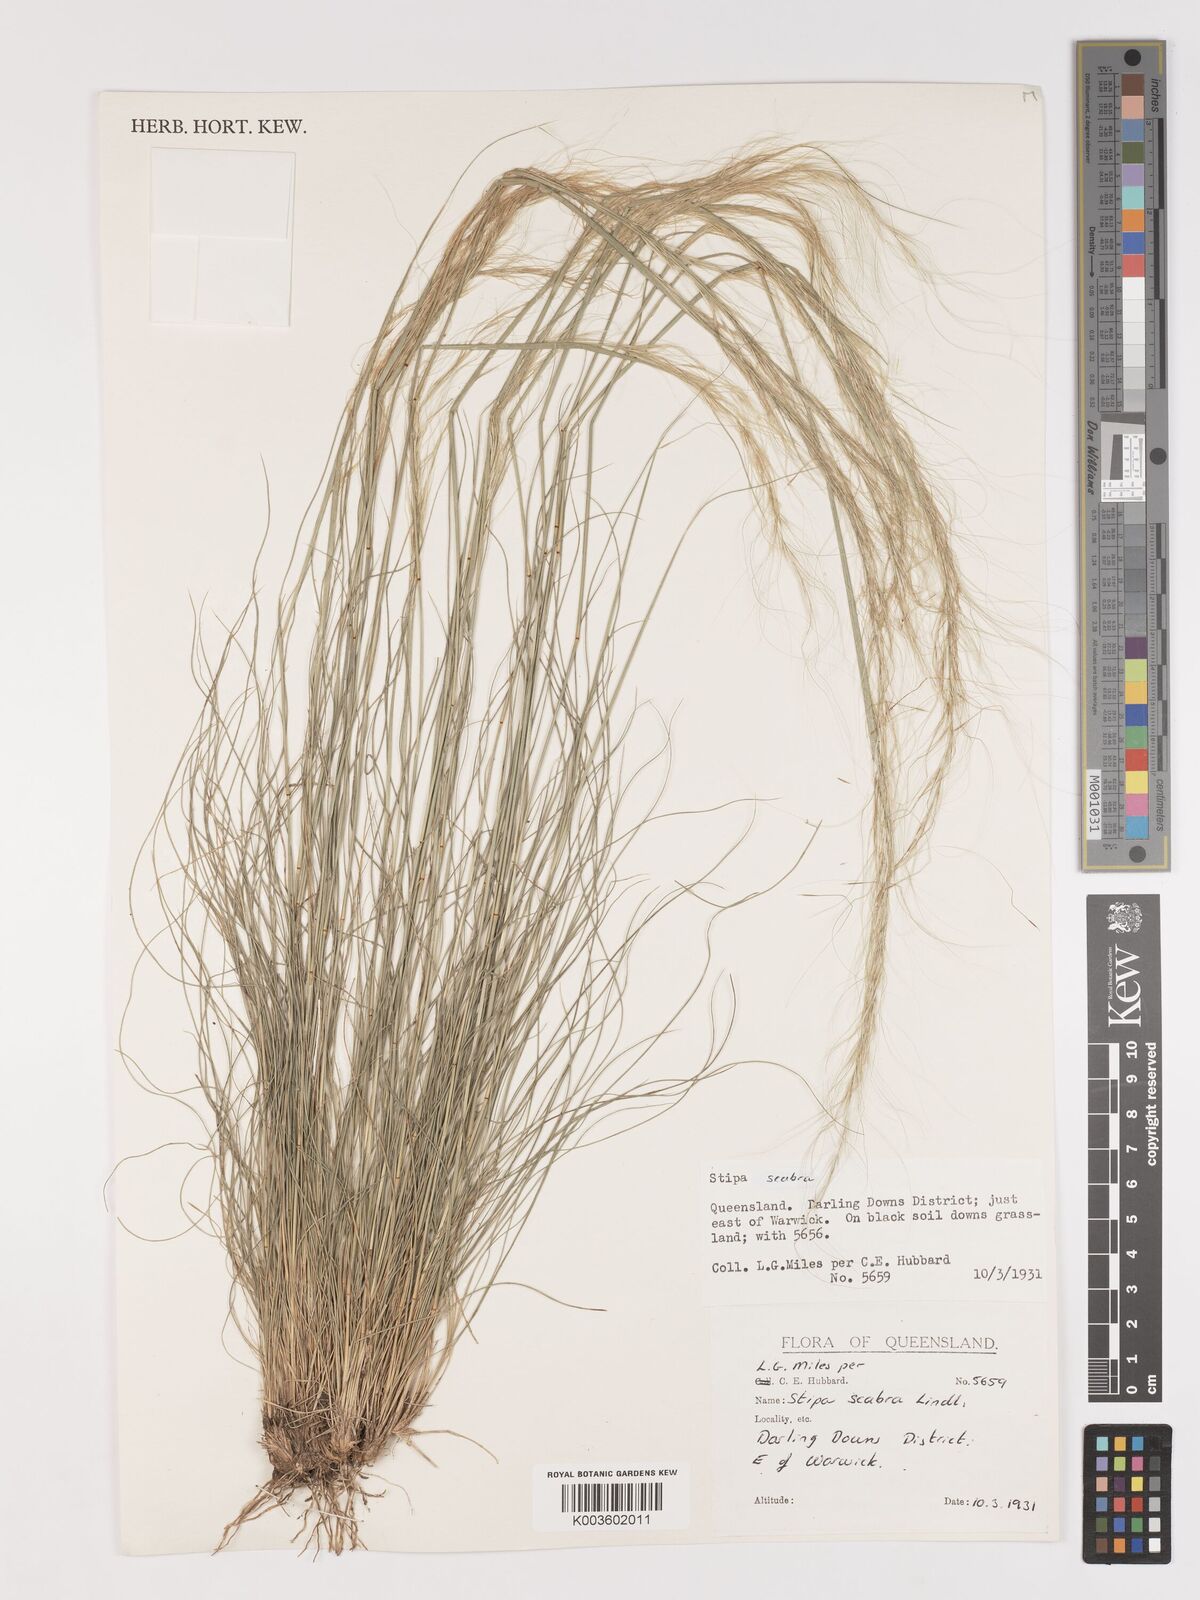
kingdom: Plantae
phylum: Tracheophyta
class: Liliopsida
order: Poales
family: Poaceae
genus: Austrostipa
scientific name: Austrostipa scabra
